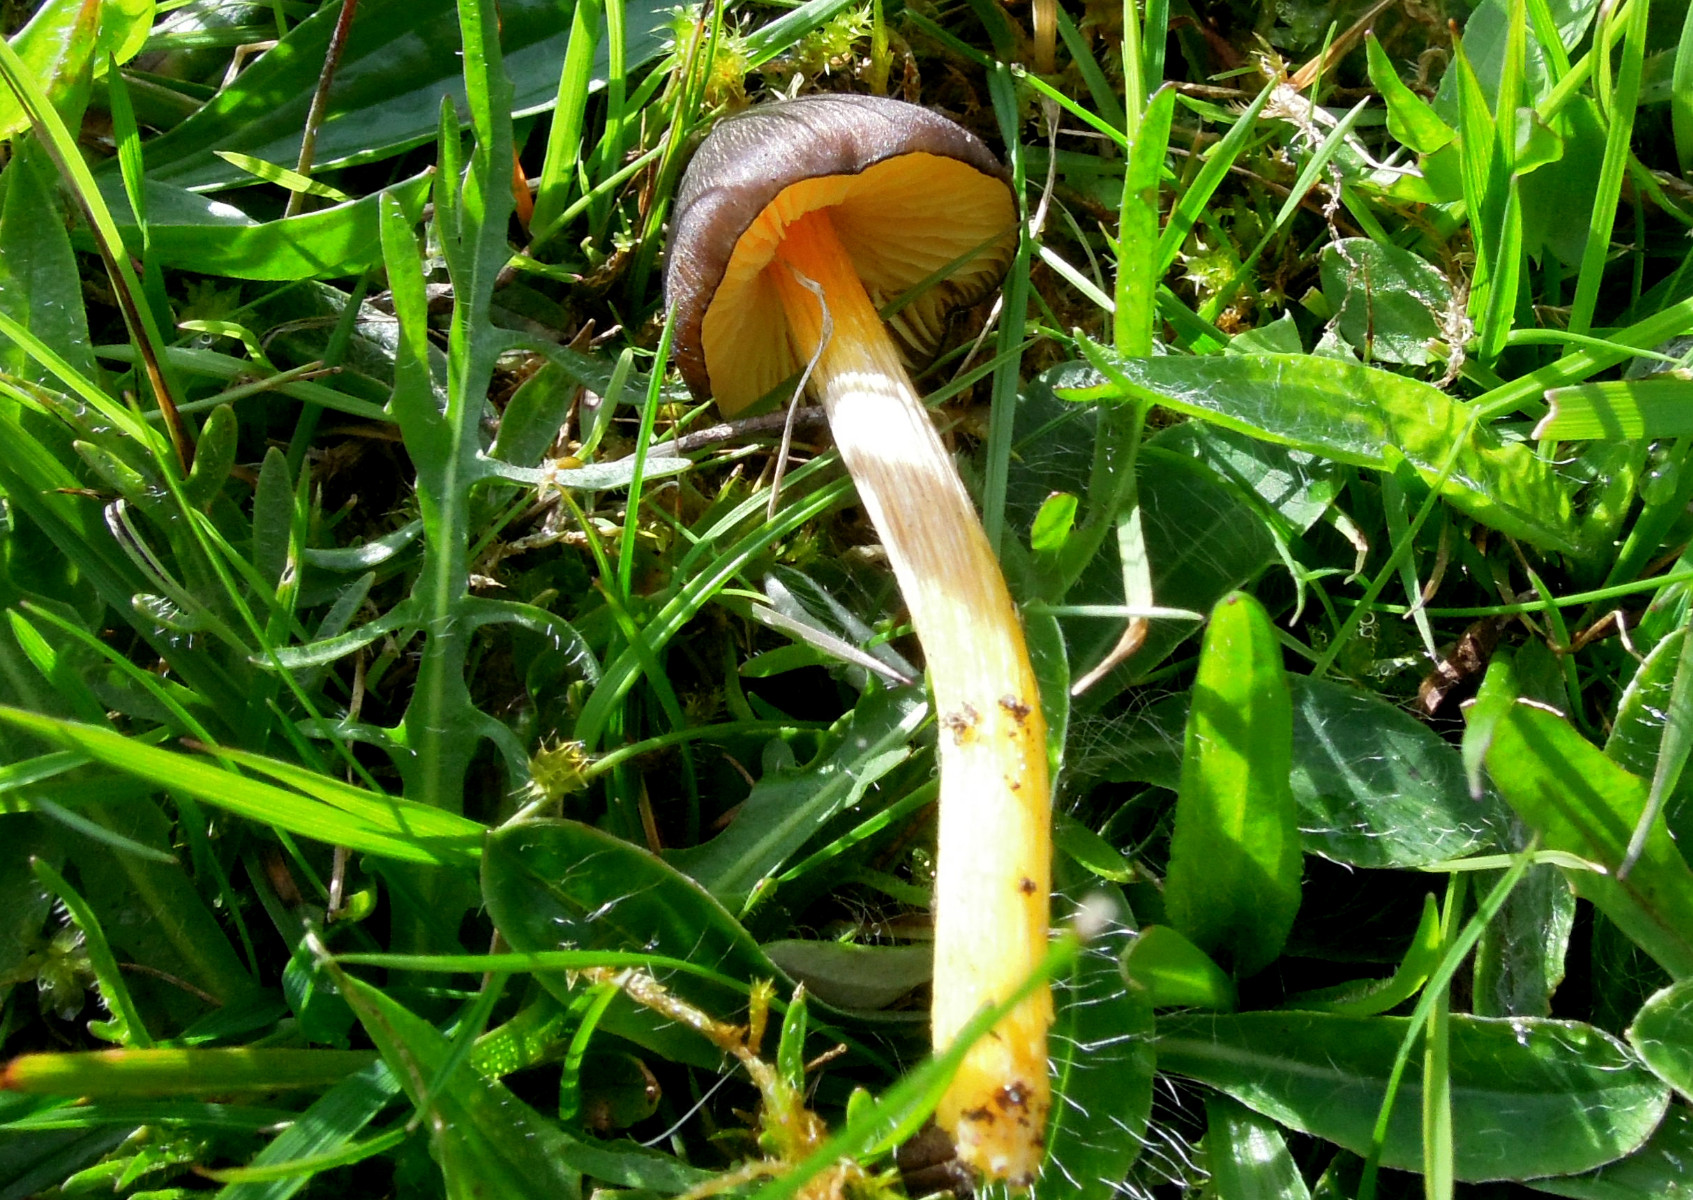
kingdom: Fungi
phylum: Basidiomycota
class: Agaricomycetes
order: Agaricales
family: Hygrophoraceae
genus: Hygrocybe
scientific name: Hygrocybe spadicea
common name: daddelbrun vokshat
